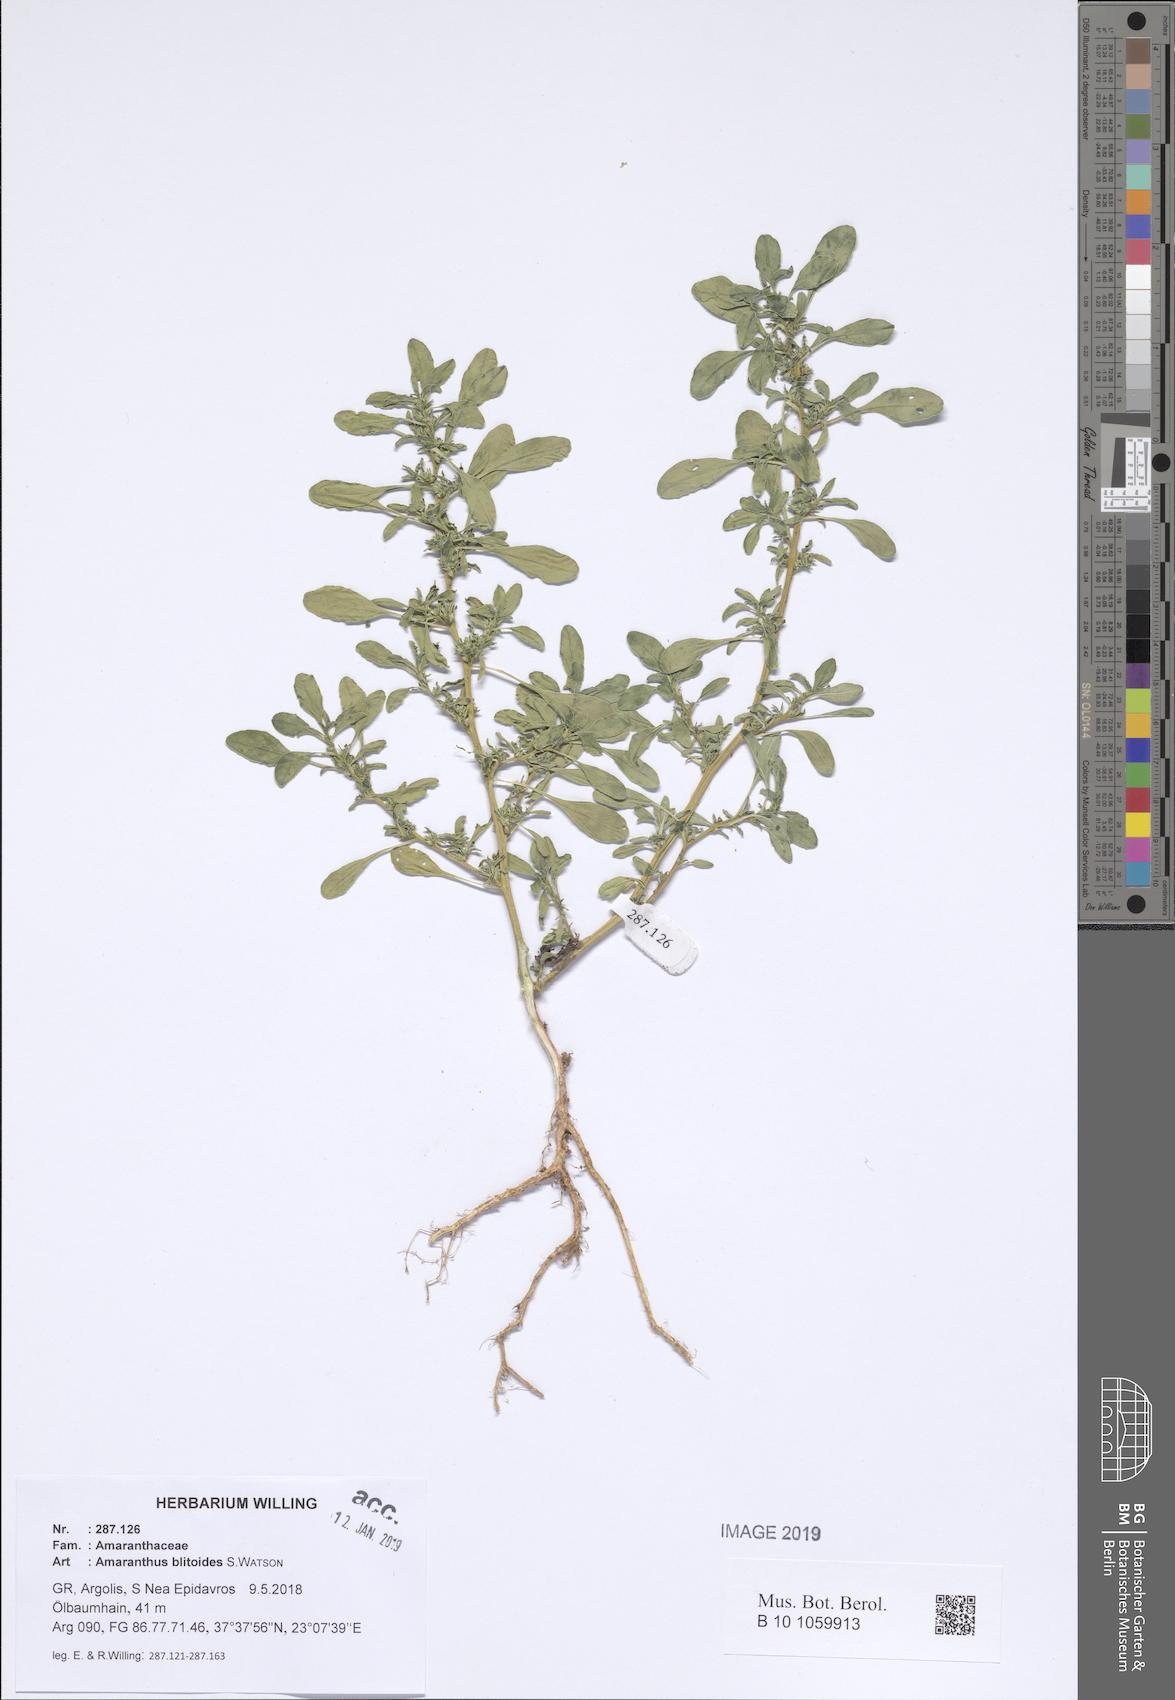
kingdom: Plantae
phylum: Tracheophyta
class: Magnoliopsida
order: Caryophyllales
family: Amaranthaceae
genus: Amaranthus
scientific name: Amaranthus blitoides
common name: Prostrate pigweed
